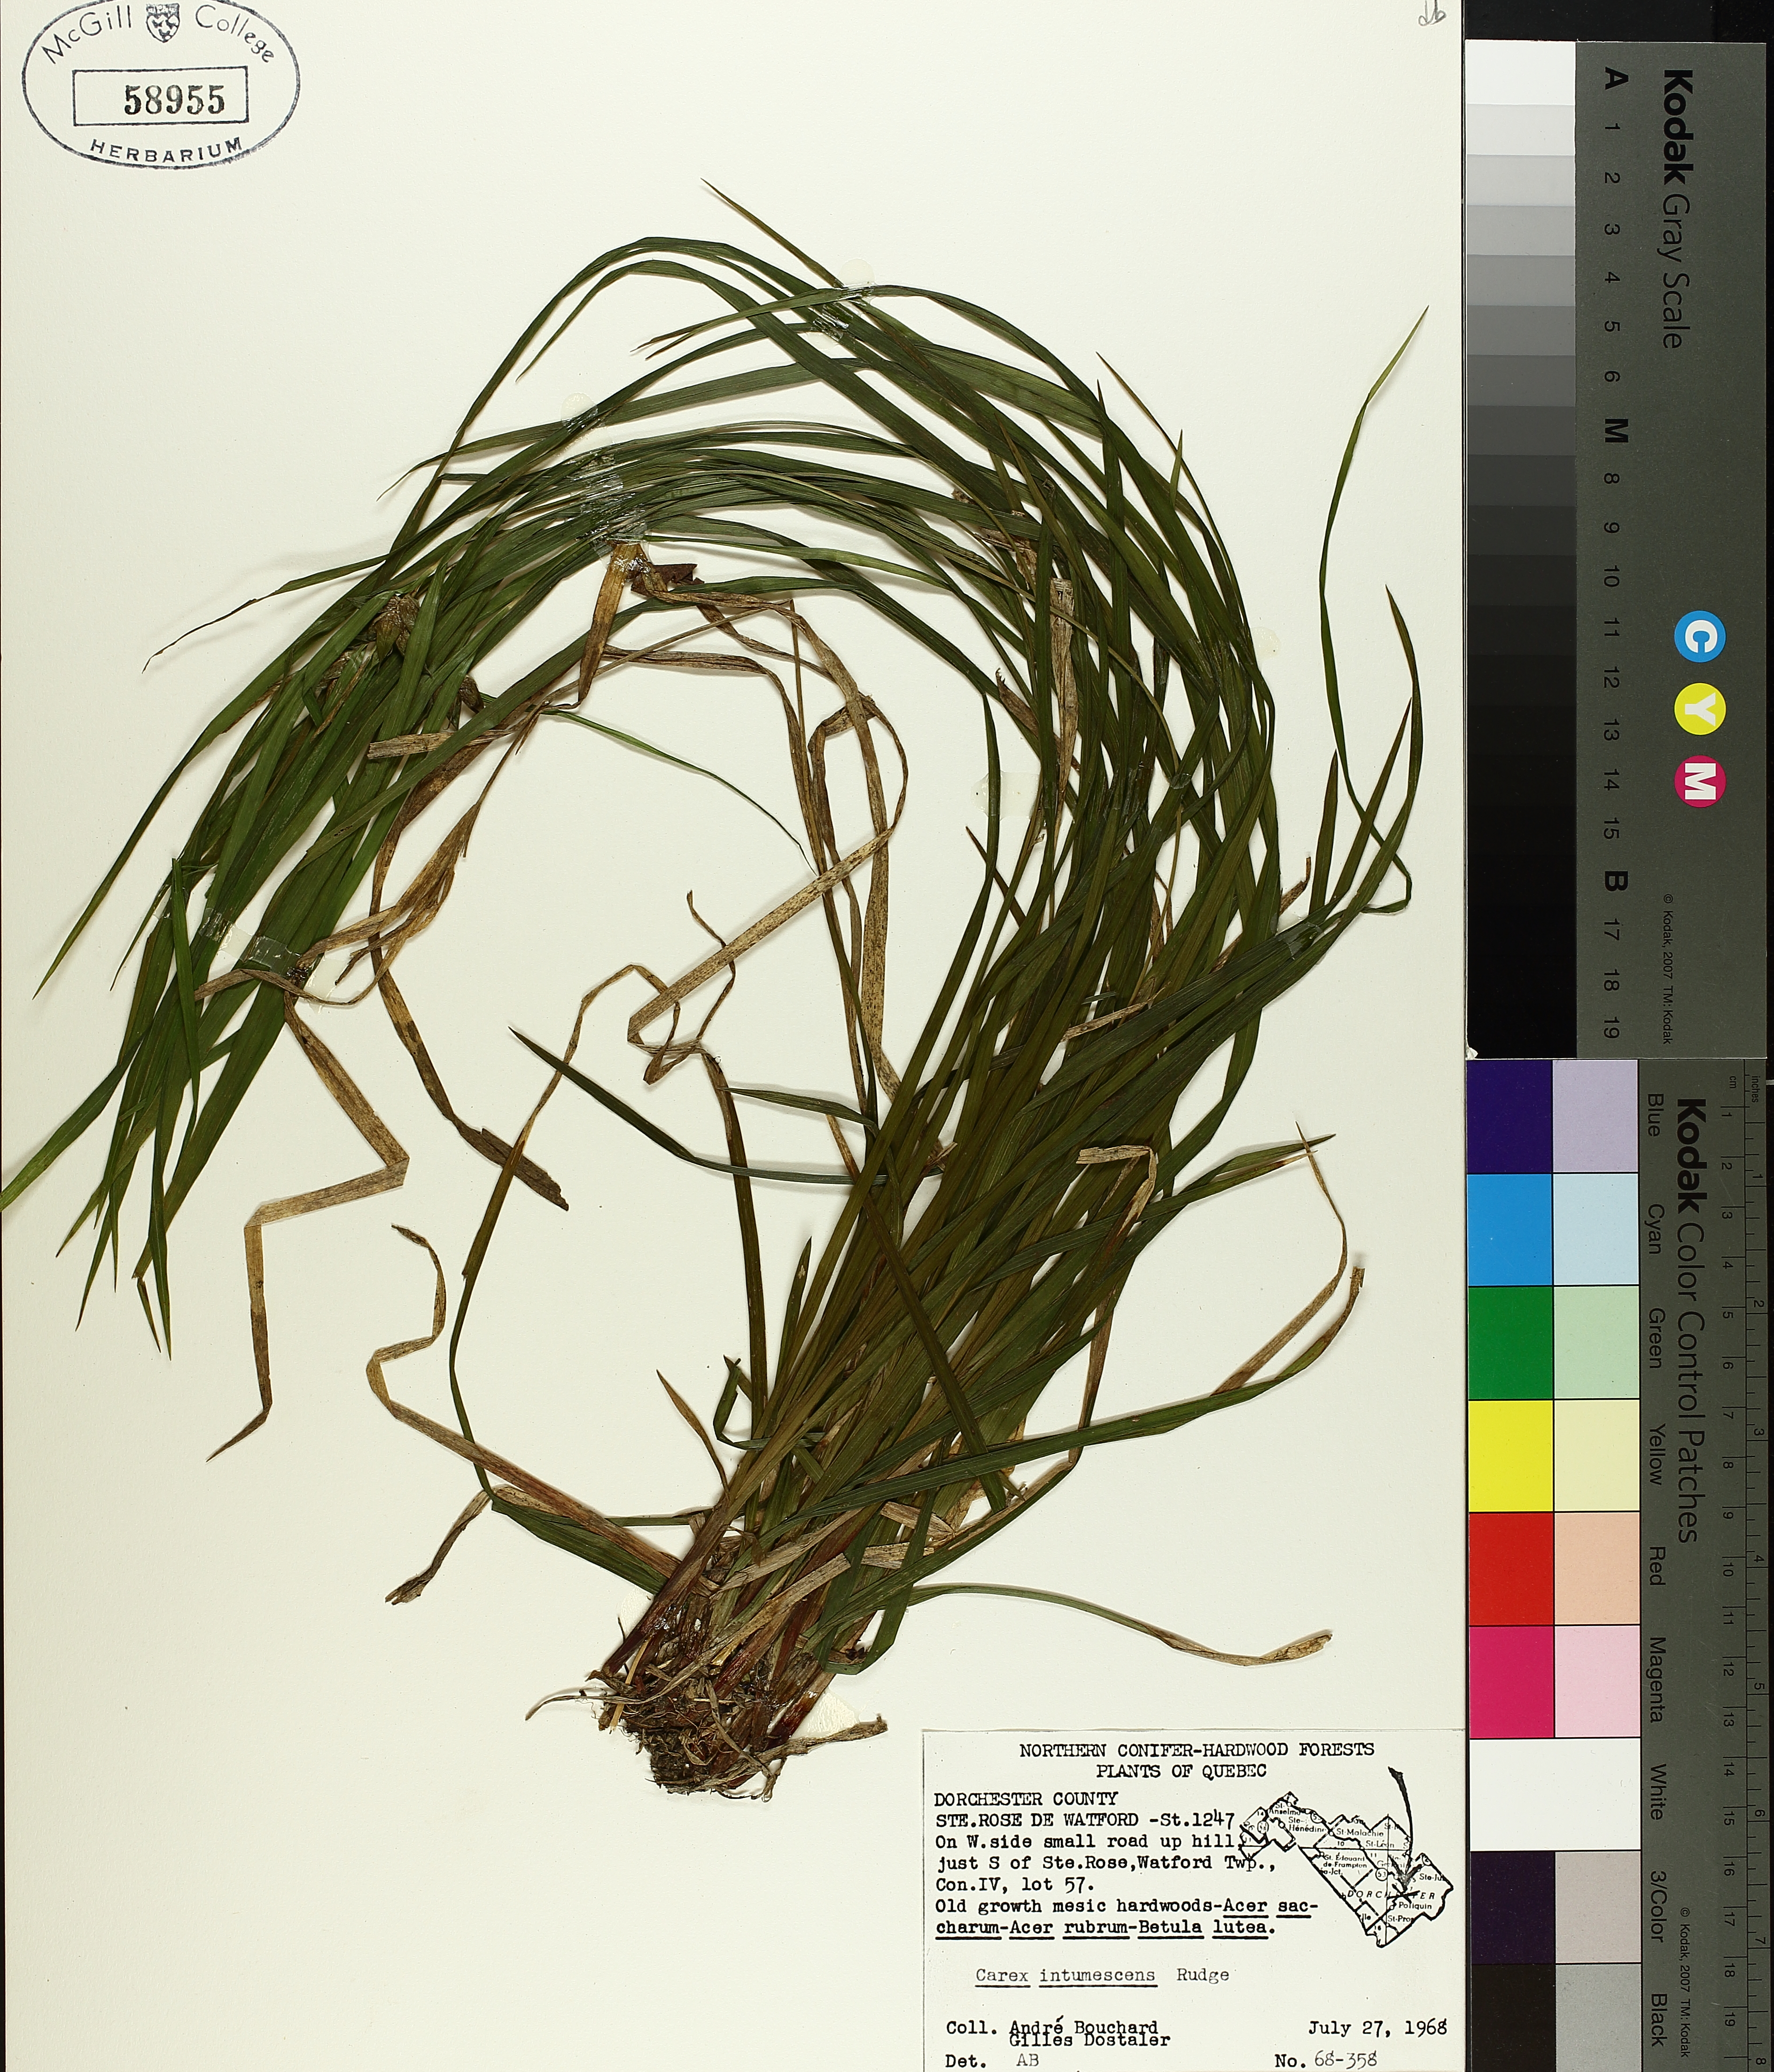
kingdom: Plantae
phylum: Tracheophyta
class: Liliopsida
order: Poales
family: Cyperaceae
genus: Carex
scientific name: Carex intumescens
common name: Greater bladder sedge
